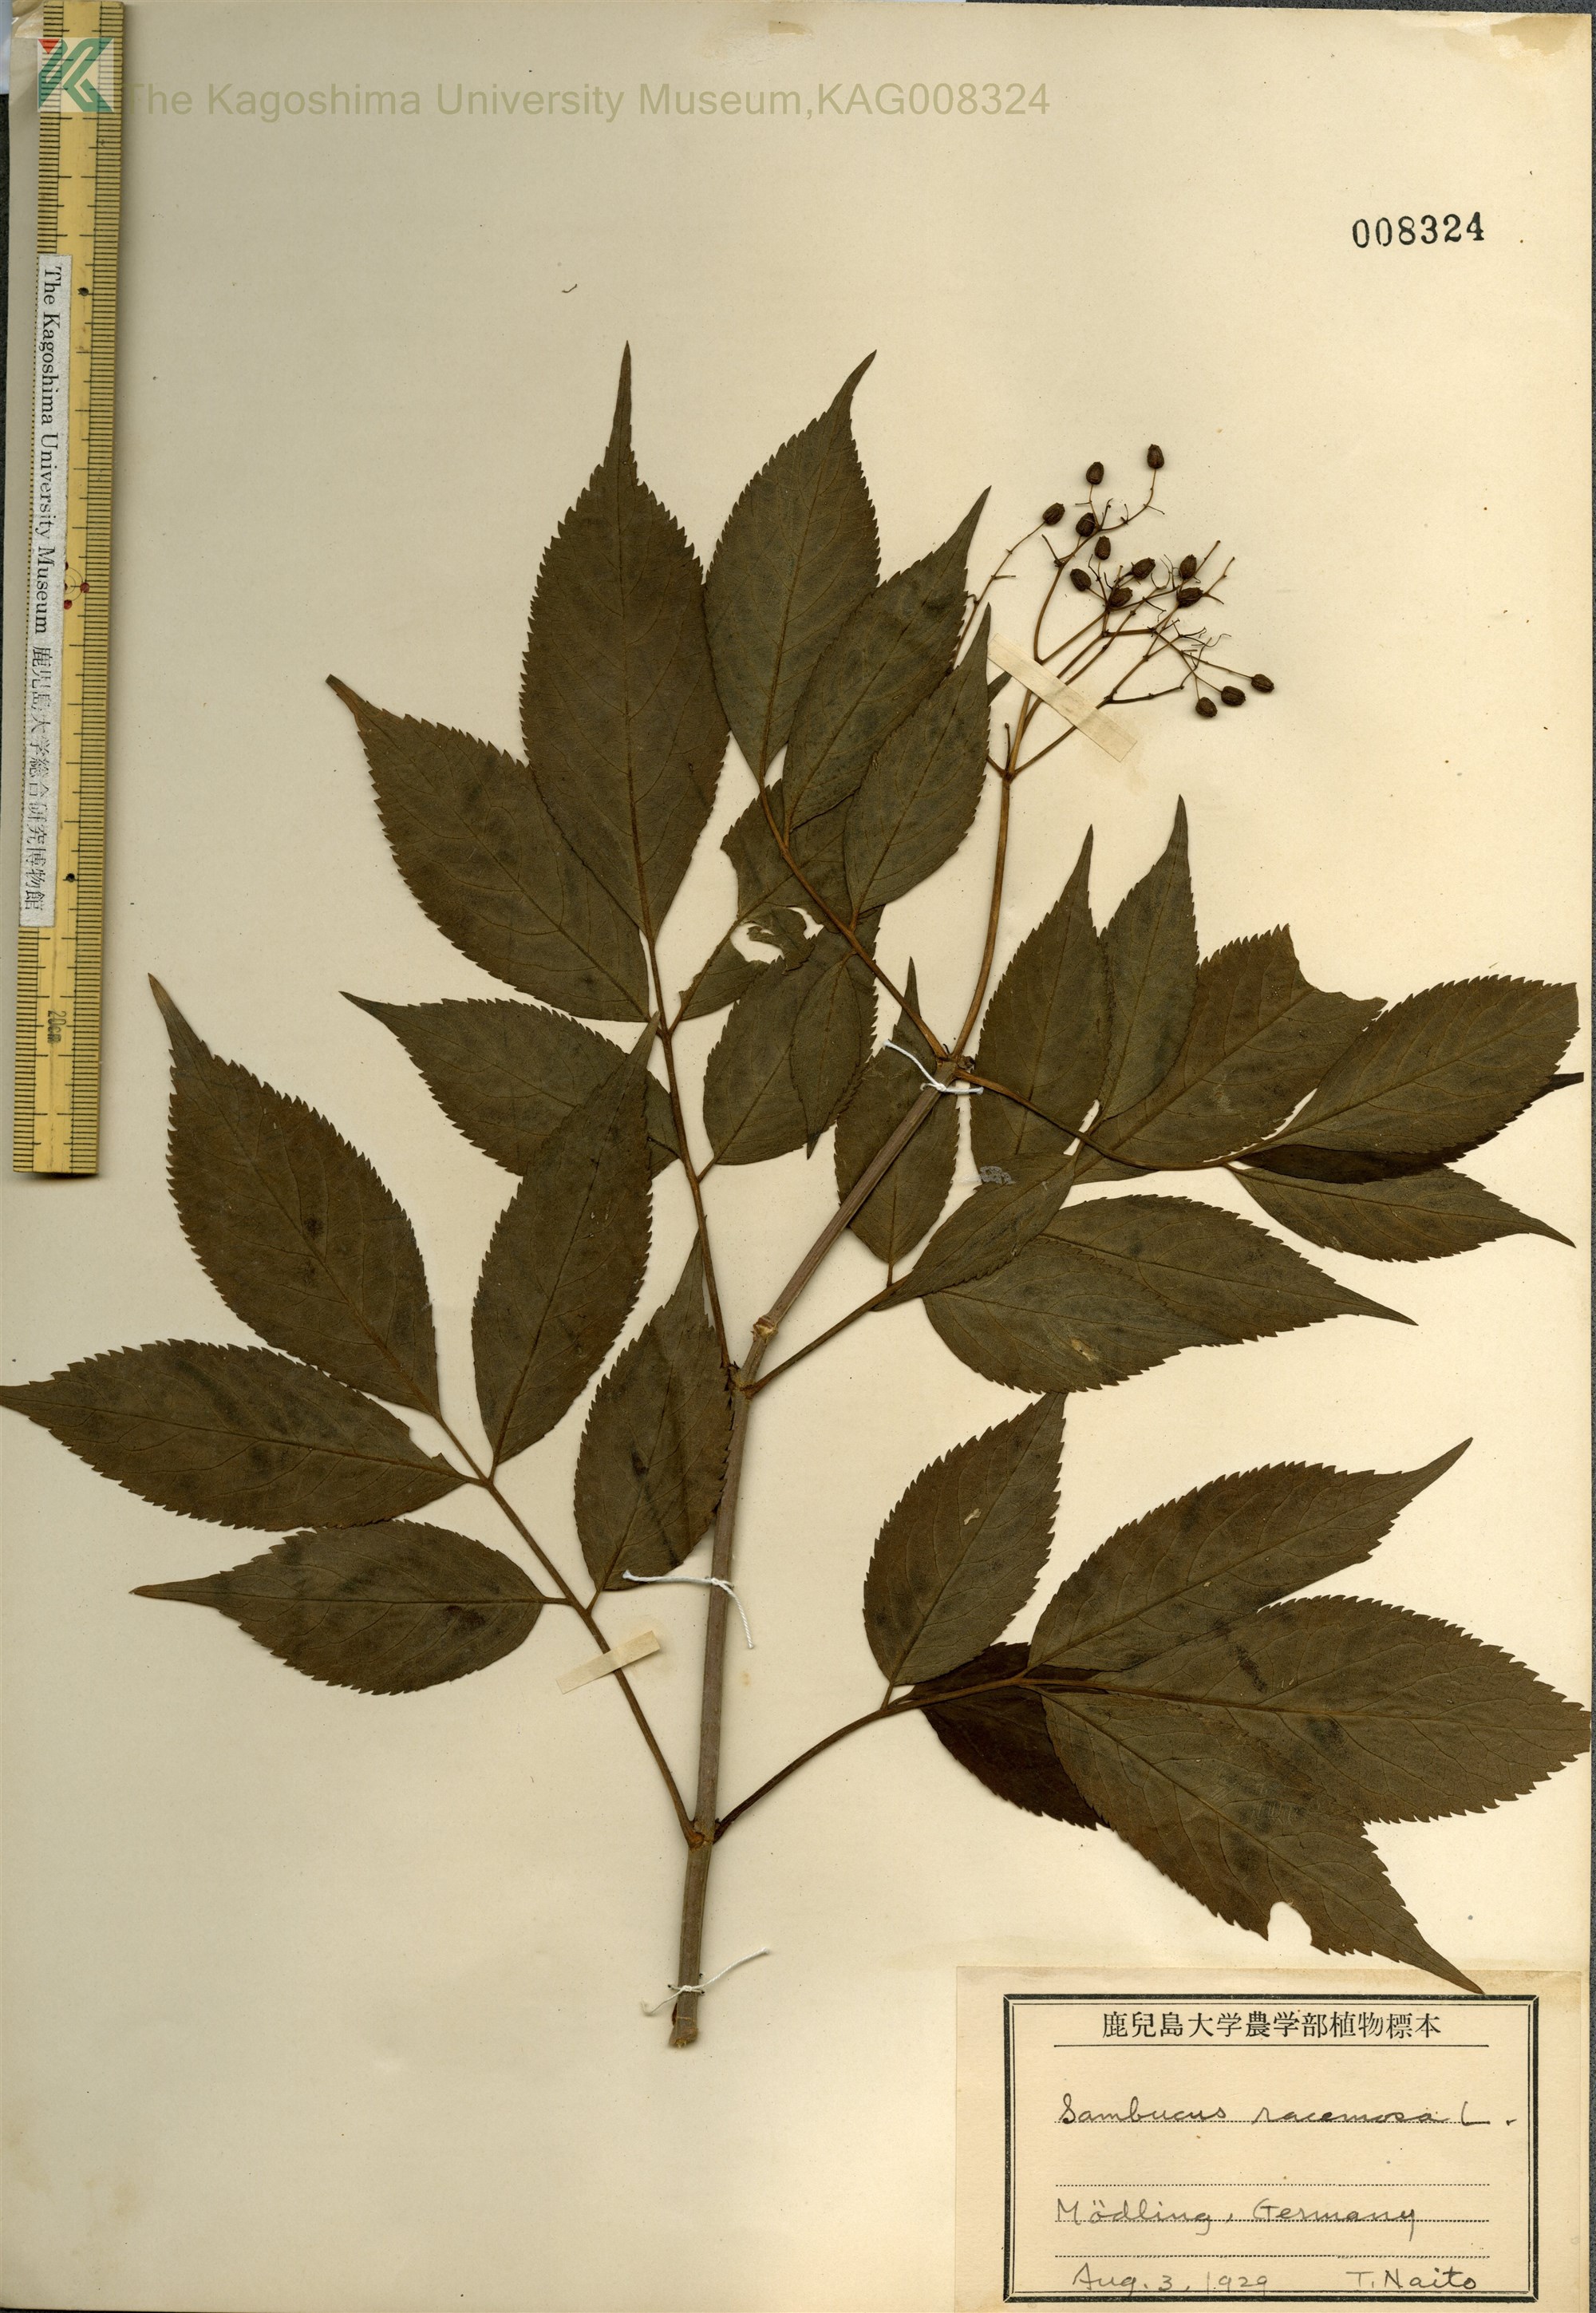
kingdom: Plantae
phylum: Tracheophyta
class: Magnoliopsida
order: Dipsacales
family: Viburnaceae
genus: Sambucus
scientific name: Sambucus racemosa
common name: Red-berried elder
